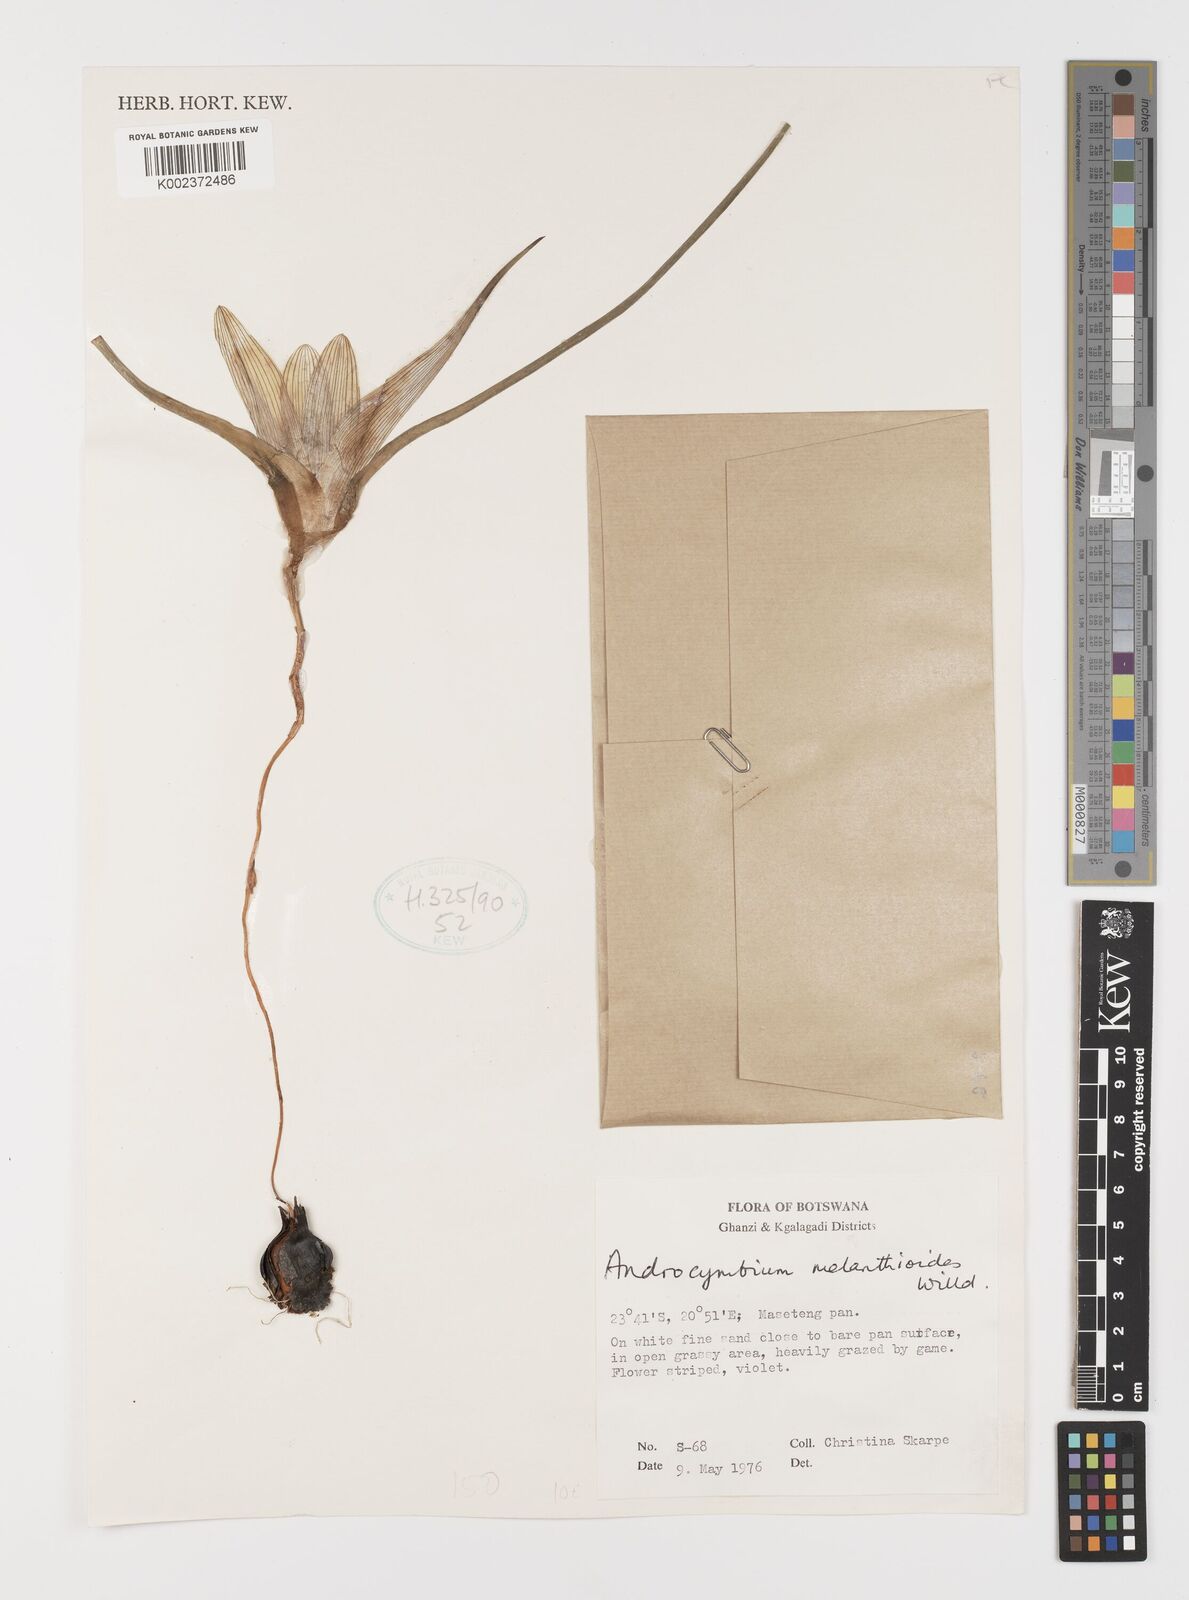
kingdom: Plantae
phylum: Tracheophyta
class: Liliopsida
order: Liliales
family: Colchicaceae
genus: Colchicum
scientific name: Colchicum
